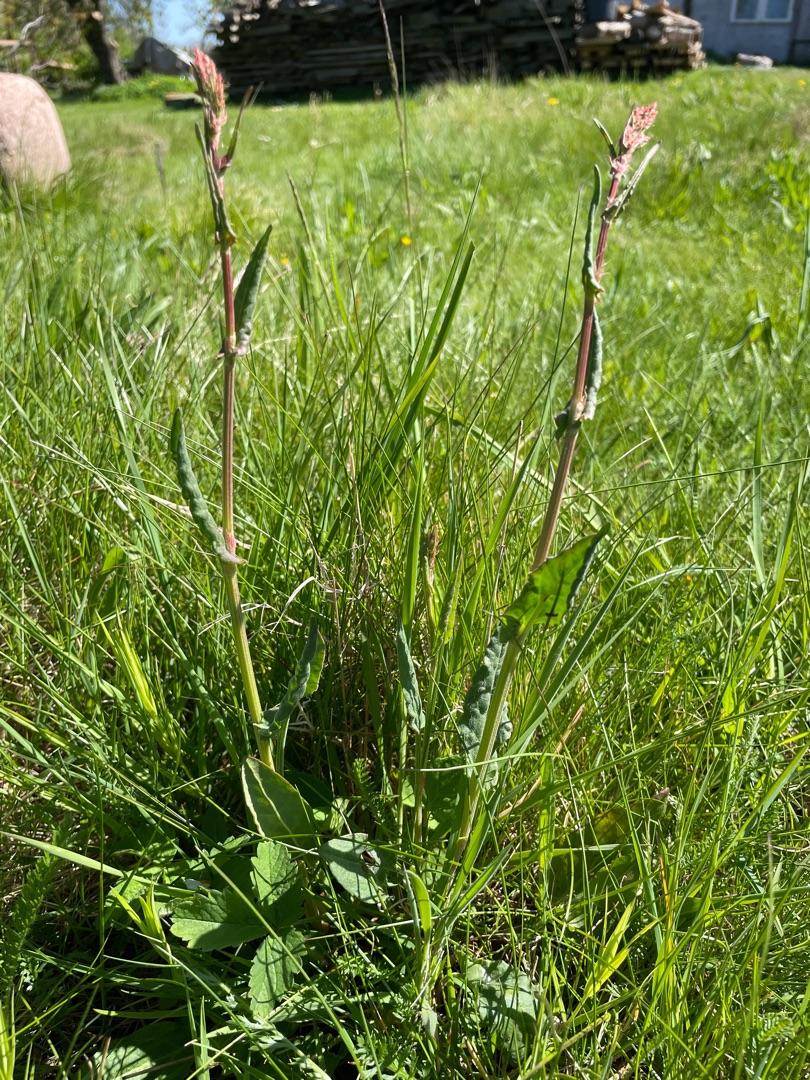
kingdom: Plantae
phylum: Tracheophyta
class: Magnoliopsida
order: Caryophyllales
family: Polygonaceae
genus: Rumex
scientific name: Rumex acetosa
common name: Almindelig syre
